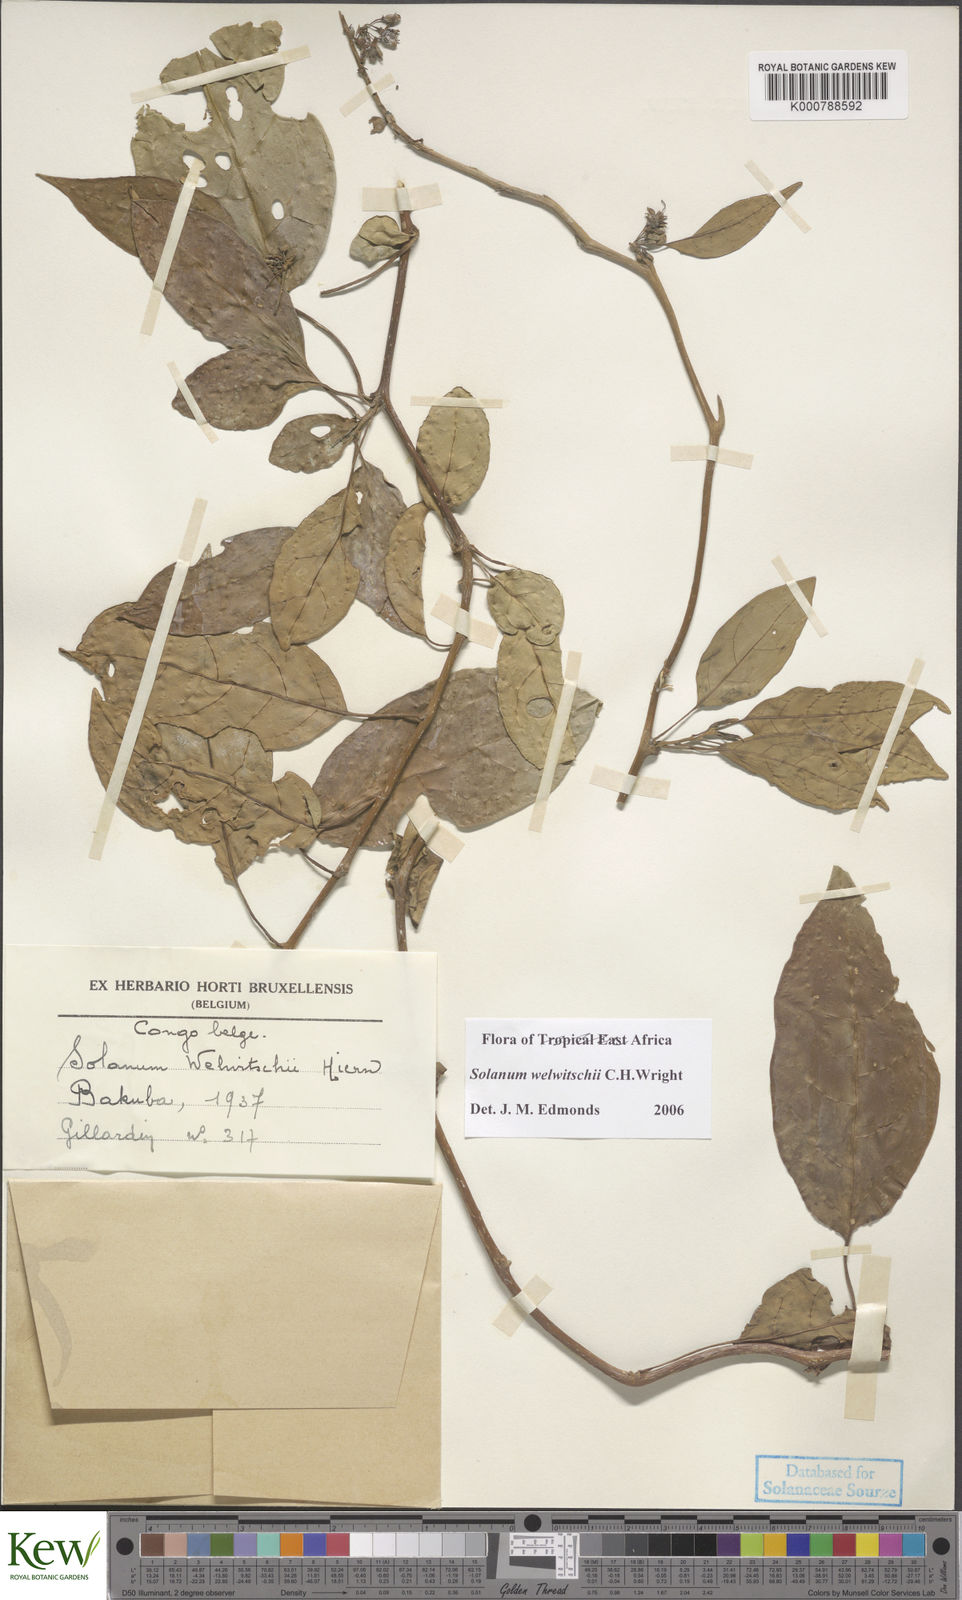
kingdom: Plantae
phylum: Tracheophyta
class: Magnoliopsida
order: Solanales
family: Solanaceae
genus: Solanum
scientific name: Solanum terminale
